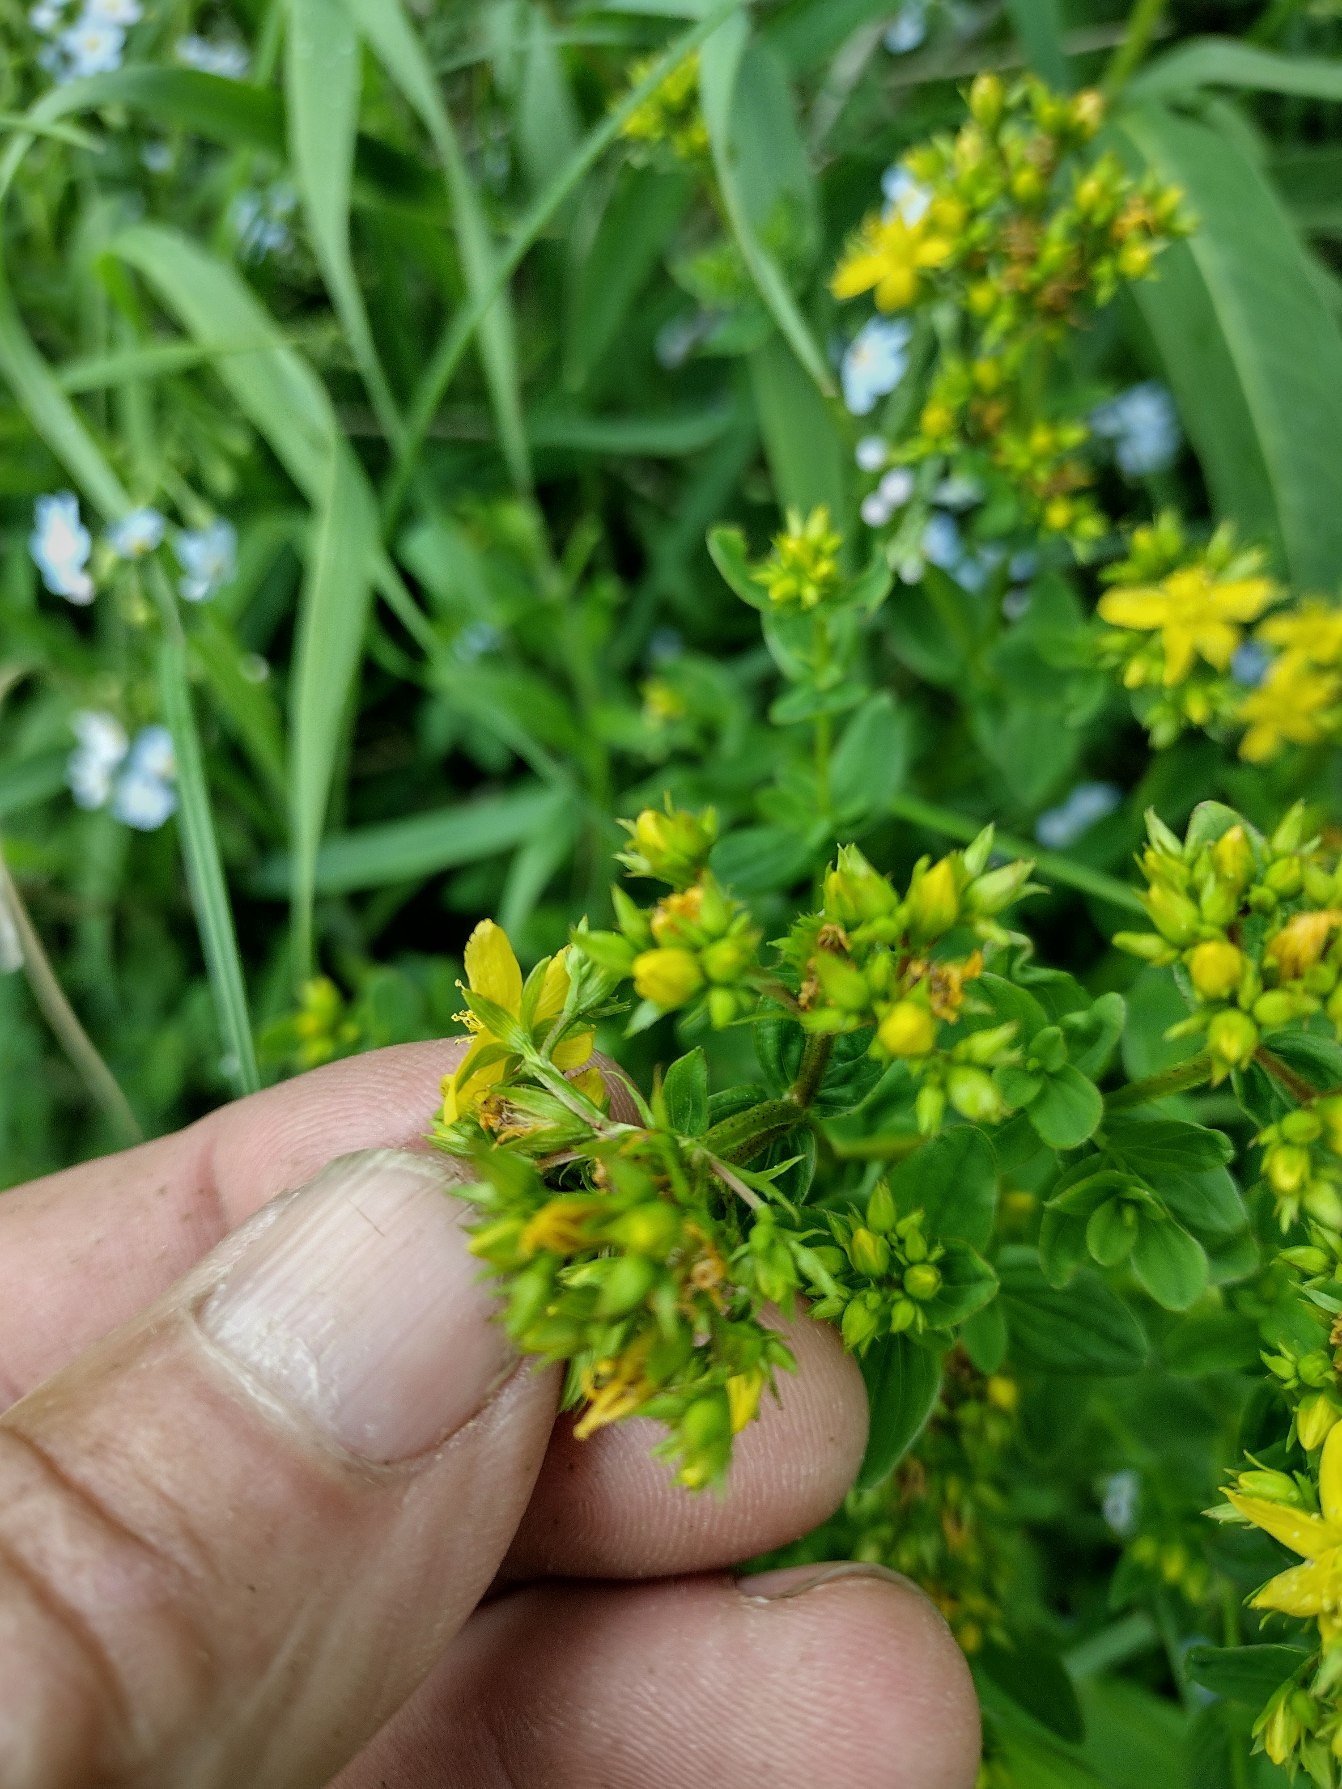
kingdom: Plantae
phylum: Tracheophyta
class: Magnoliopsida
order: Malpighiales
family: Hypericaceae
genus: Hypericum
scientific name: Hypericum tetrapterum
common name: Vinget perikon
